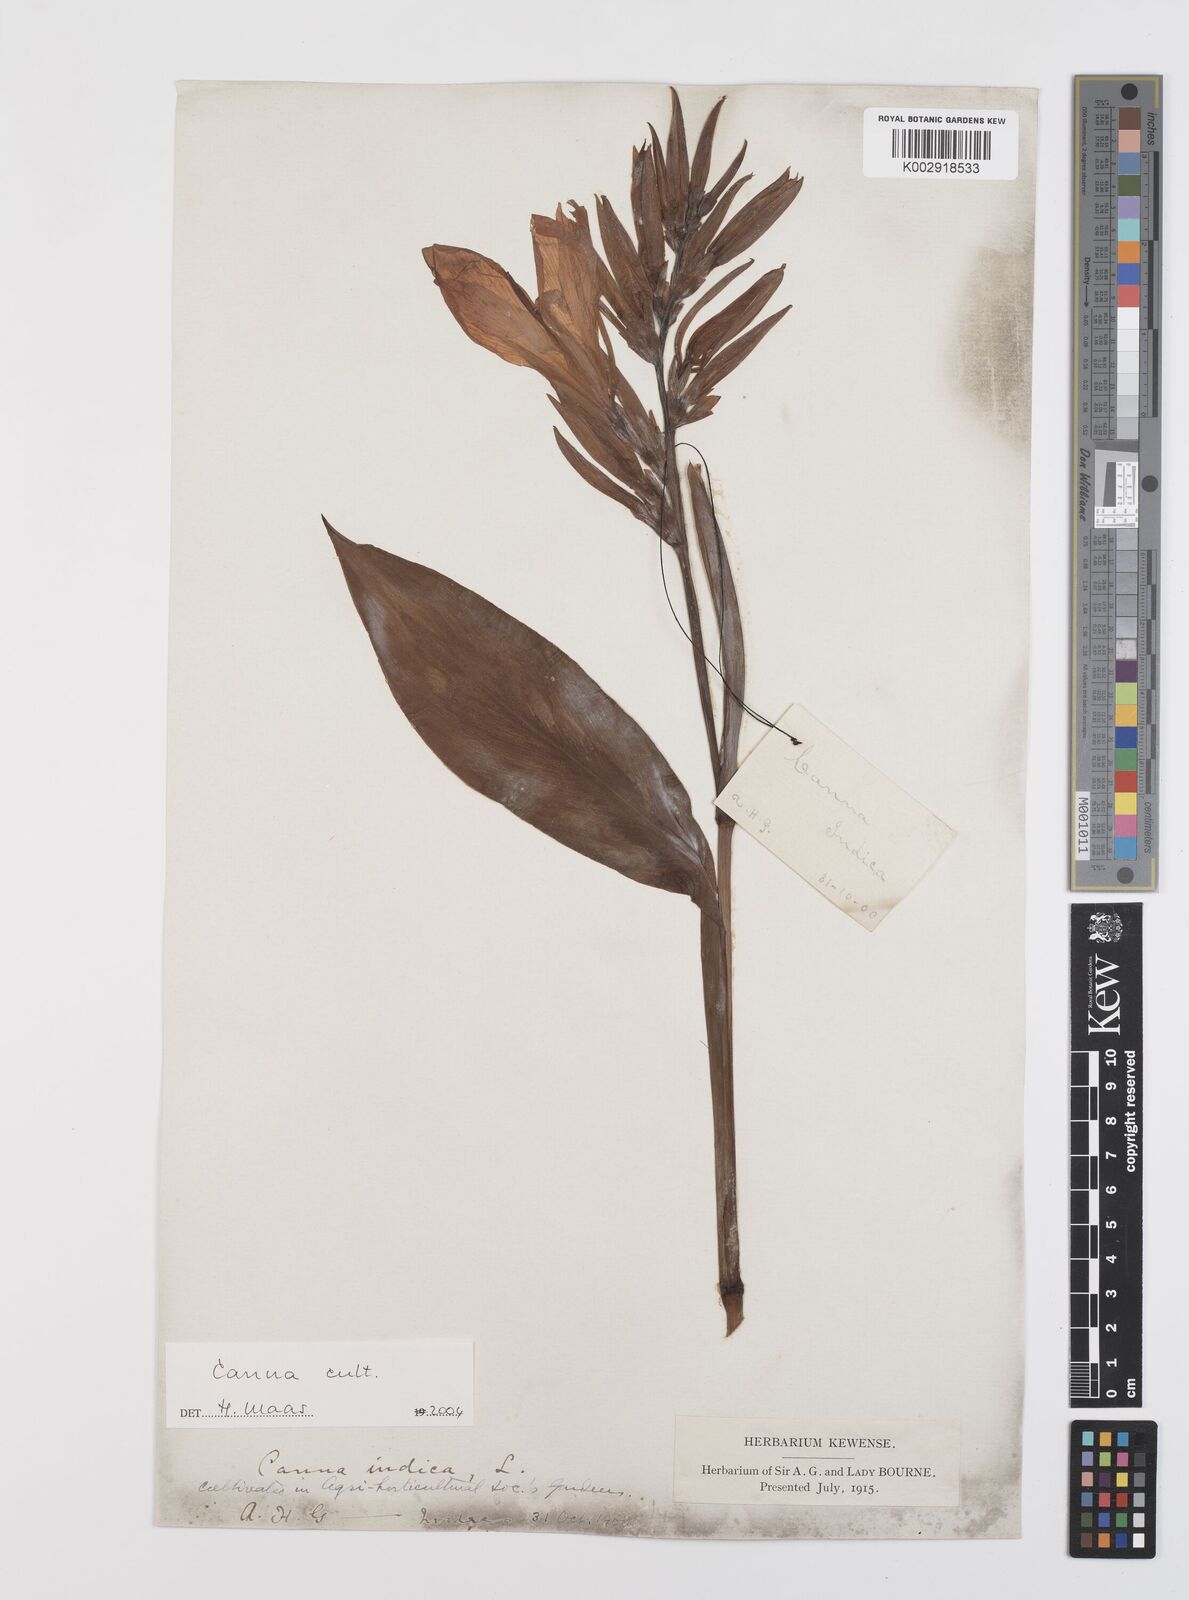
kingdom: Plantae
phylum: Tracheophyta
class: Liliopsida
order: Zingiberales
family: Cannaceae
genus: Canna
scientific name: Canna
